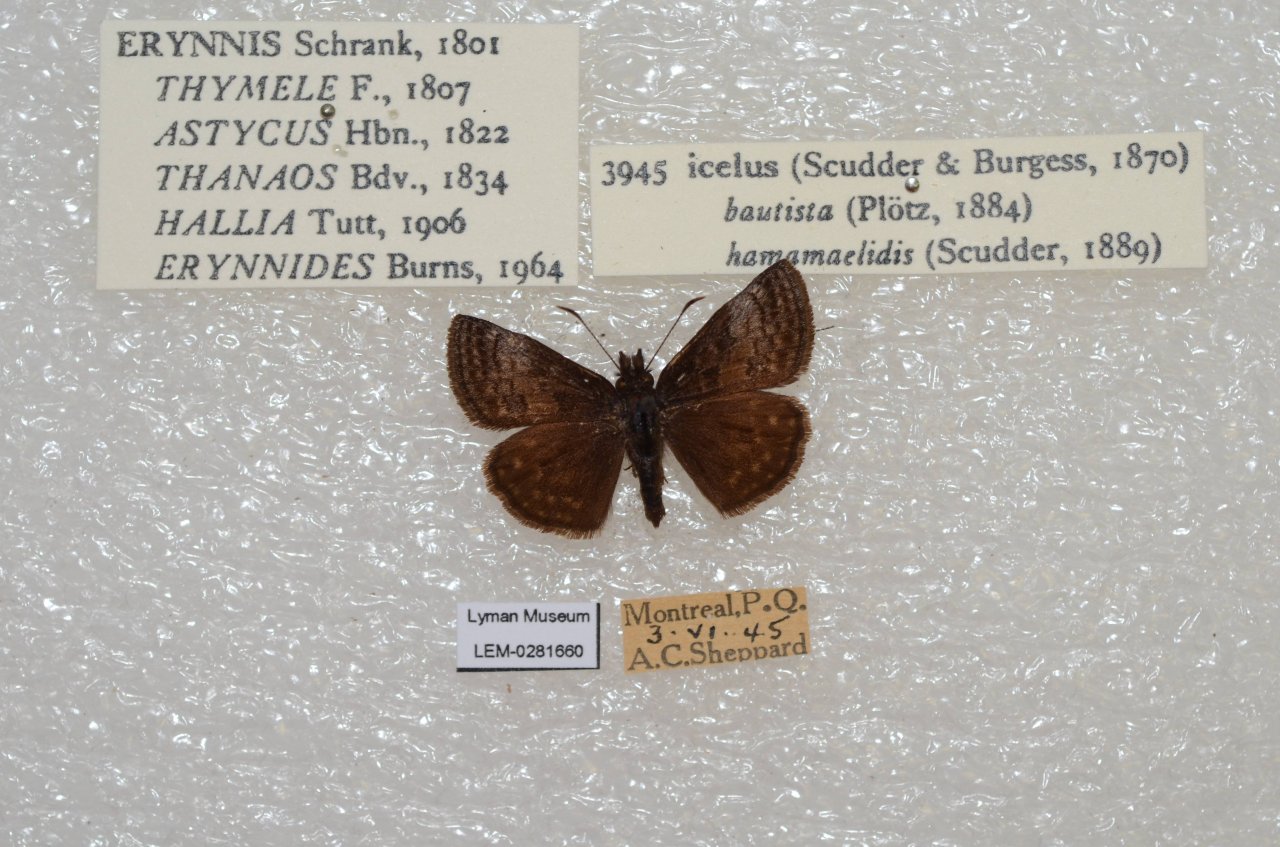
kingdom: Animalia
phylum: Arthropoda
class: Insecta
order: Lepidoptera
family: Hesperiidae
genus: Erynnis
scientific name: Erynnis icelus
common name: Dreamy Duskywing
